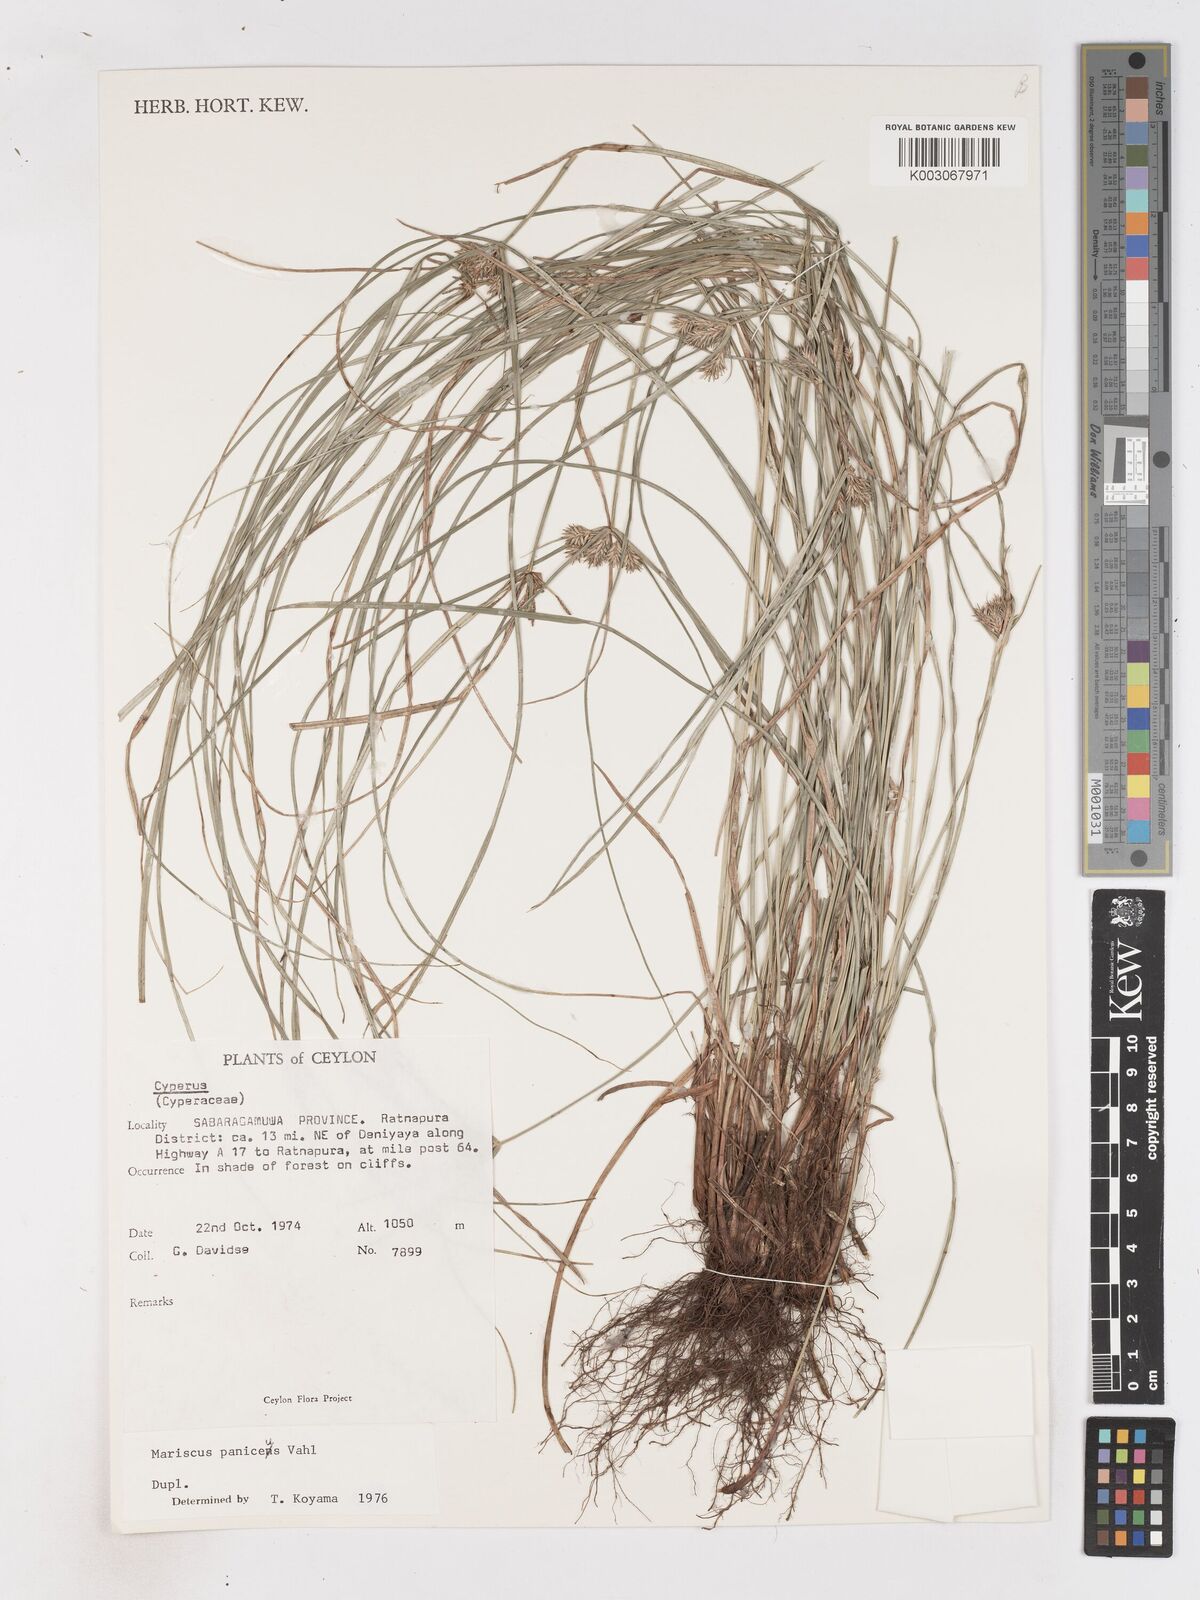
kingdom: Plantae
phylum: Tracheophyta
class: Liliopsida
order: Poales
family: Cyperaceae
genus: Cyperus
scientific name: Cyperus paniceus
